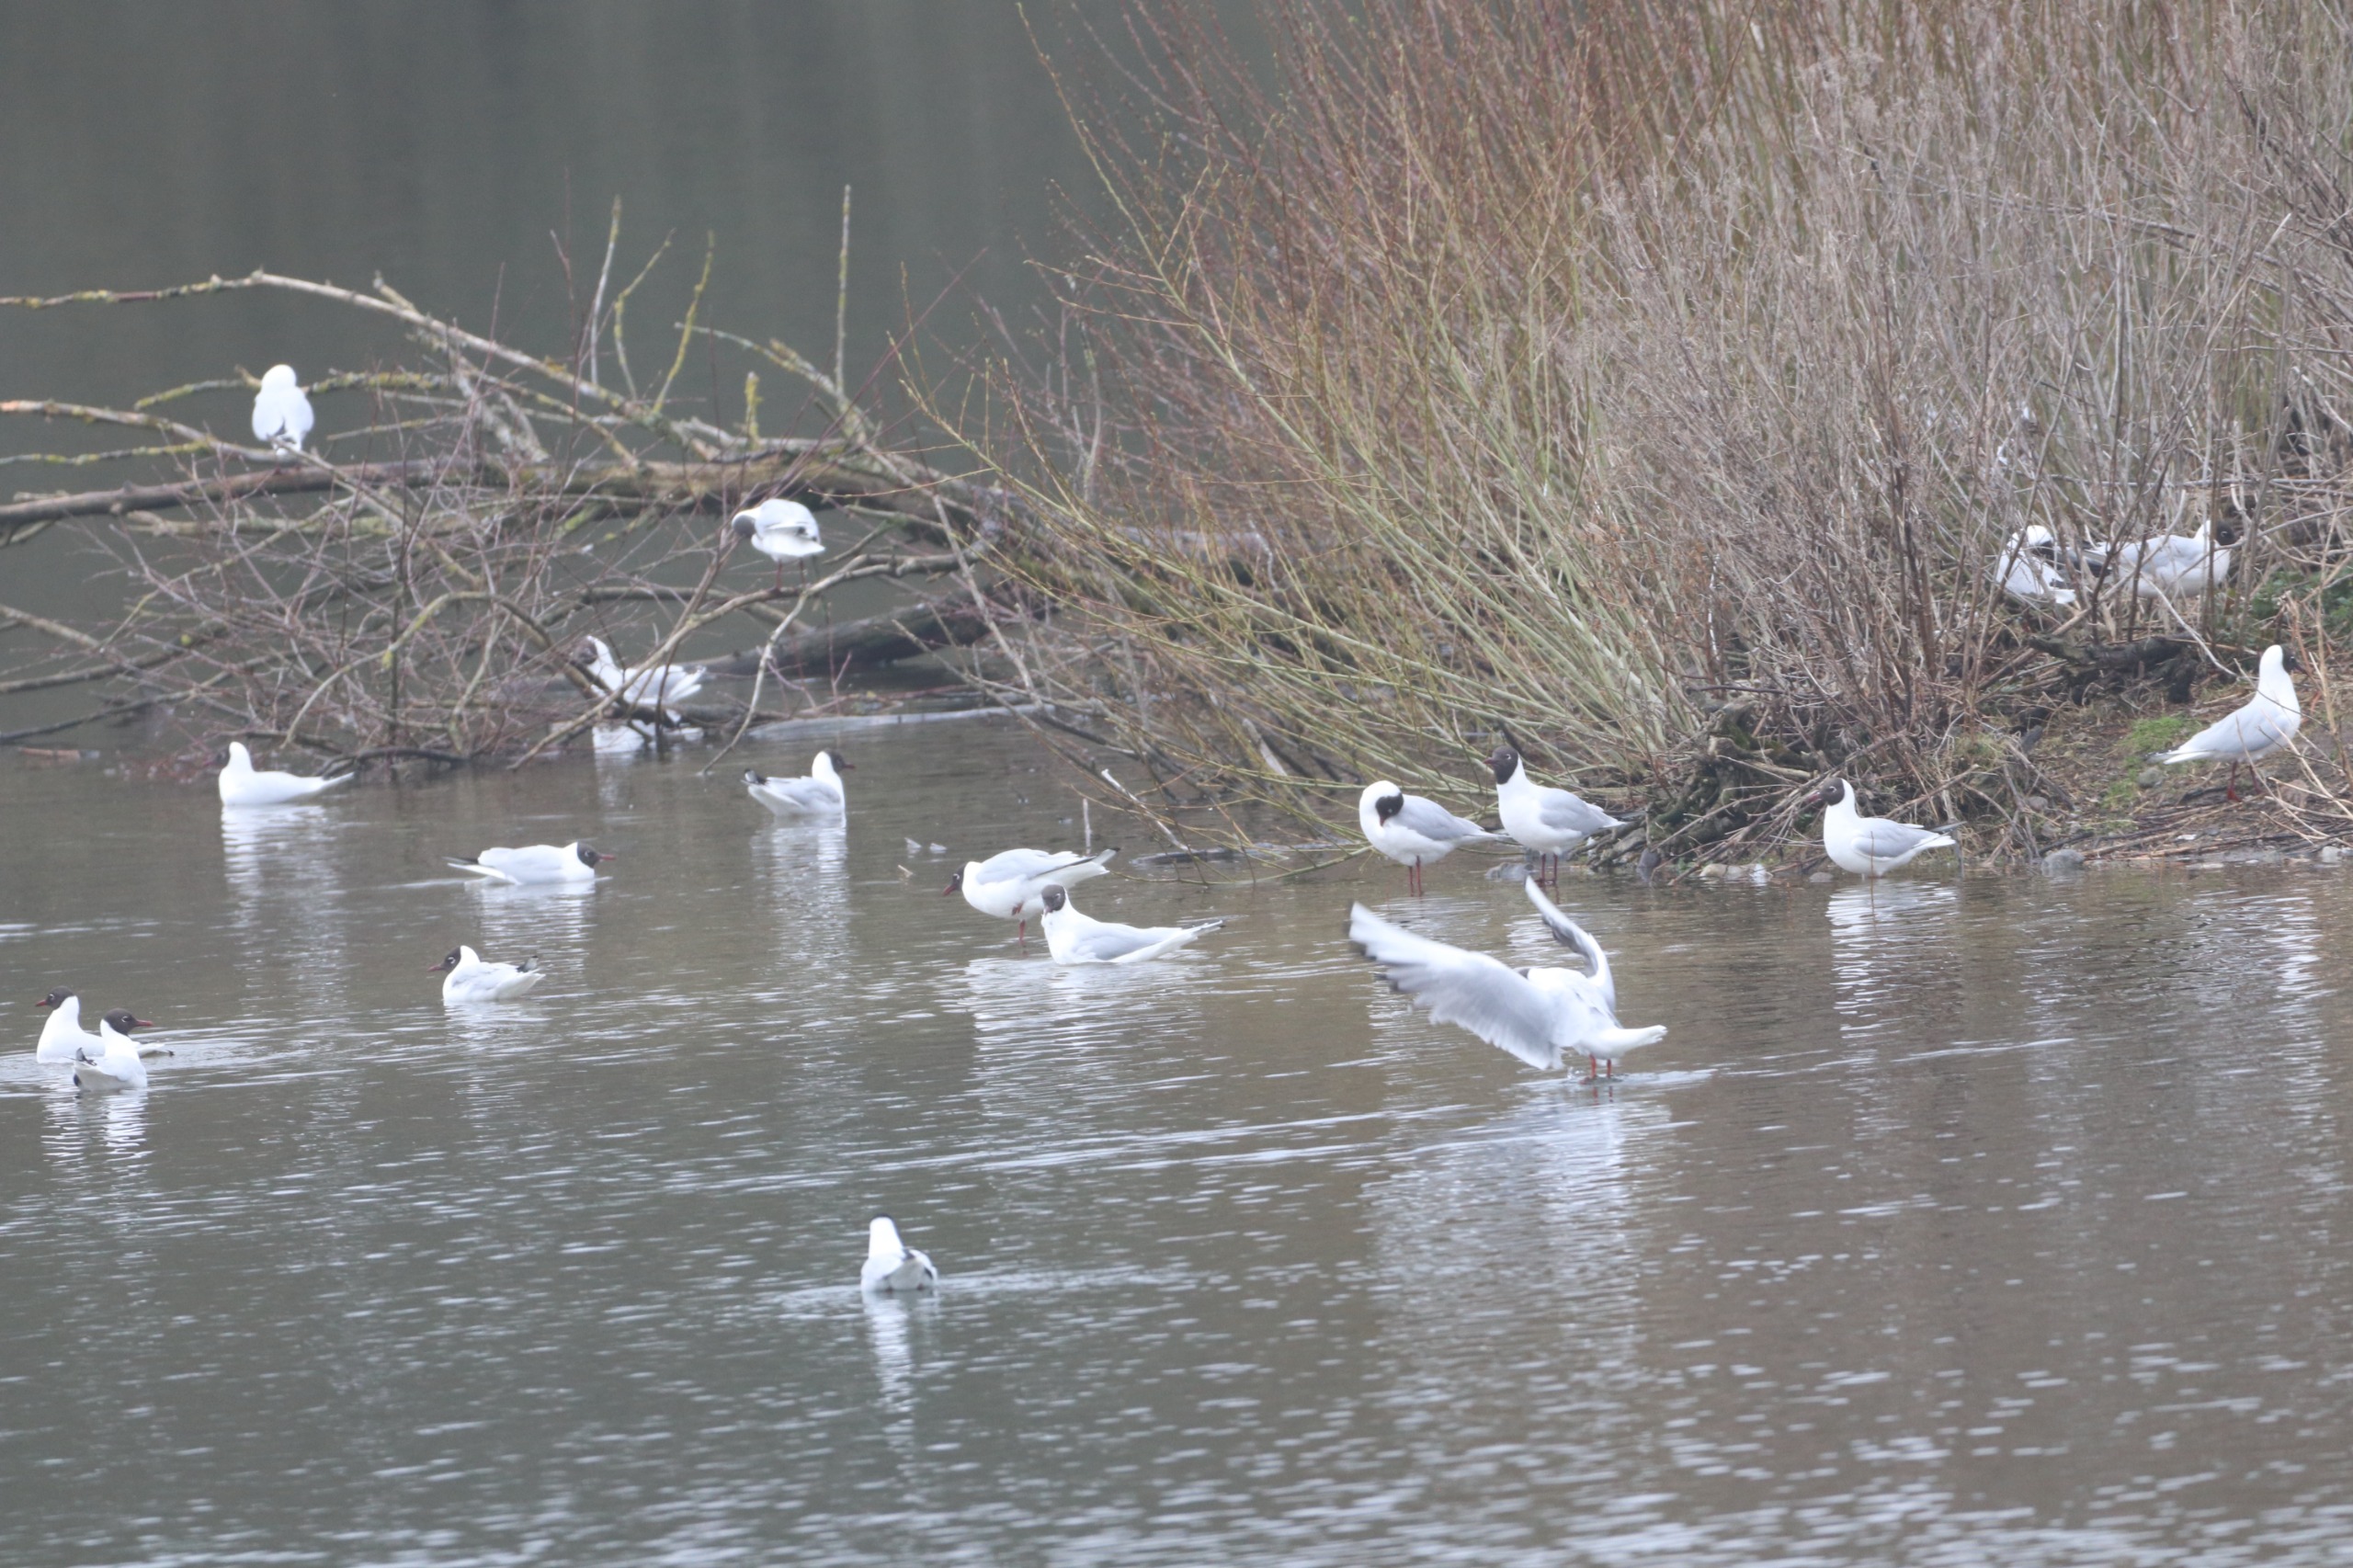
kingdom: Animalia
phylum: Chordata
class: Aves
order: Charadriiformes
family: Laridae
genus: Chroicocephalus
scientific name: Chroicocephalus ridibundus
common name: Hættemåge
